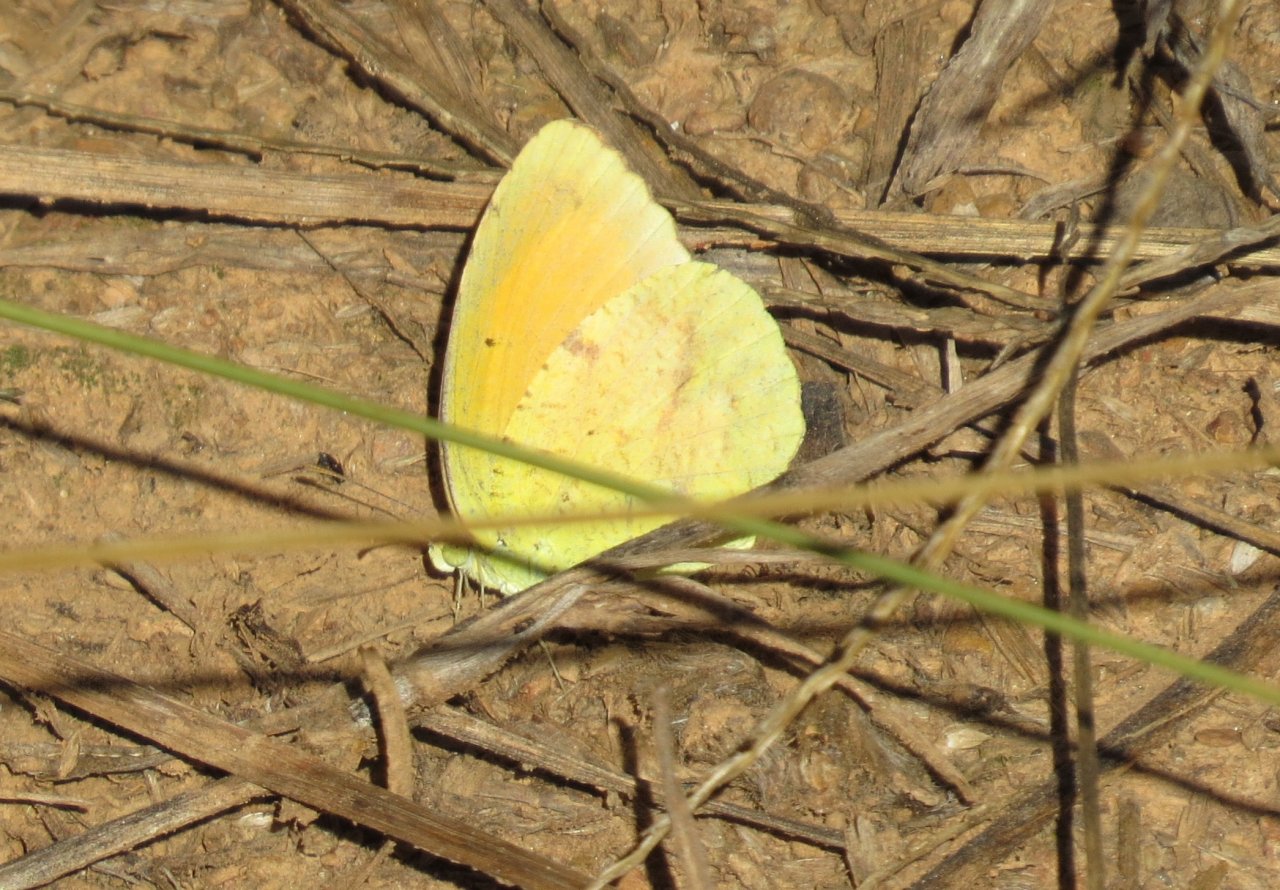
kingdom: Animalia
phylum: Arthropoda
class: Insecta
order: Lepidoptera
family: Pieridae
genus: Abaeis
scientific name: Abaeis nicippe
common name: Sleepy Orange
